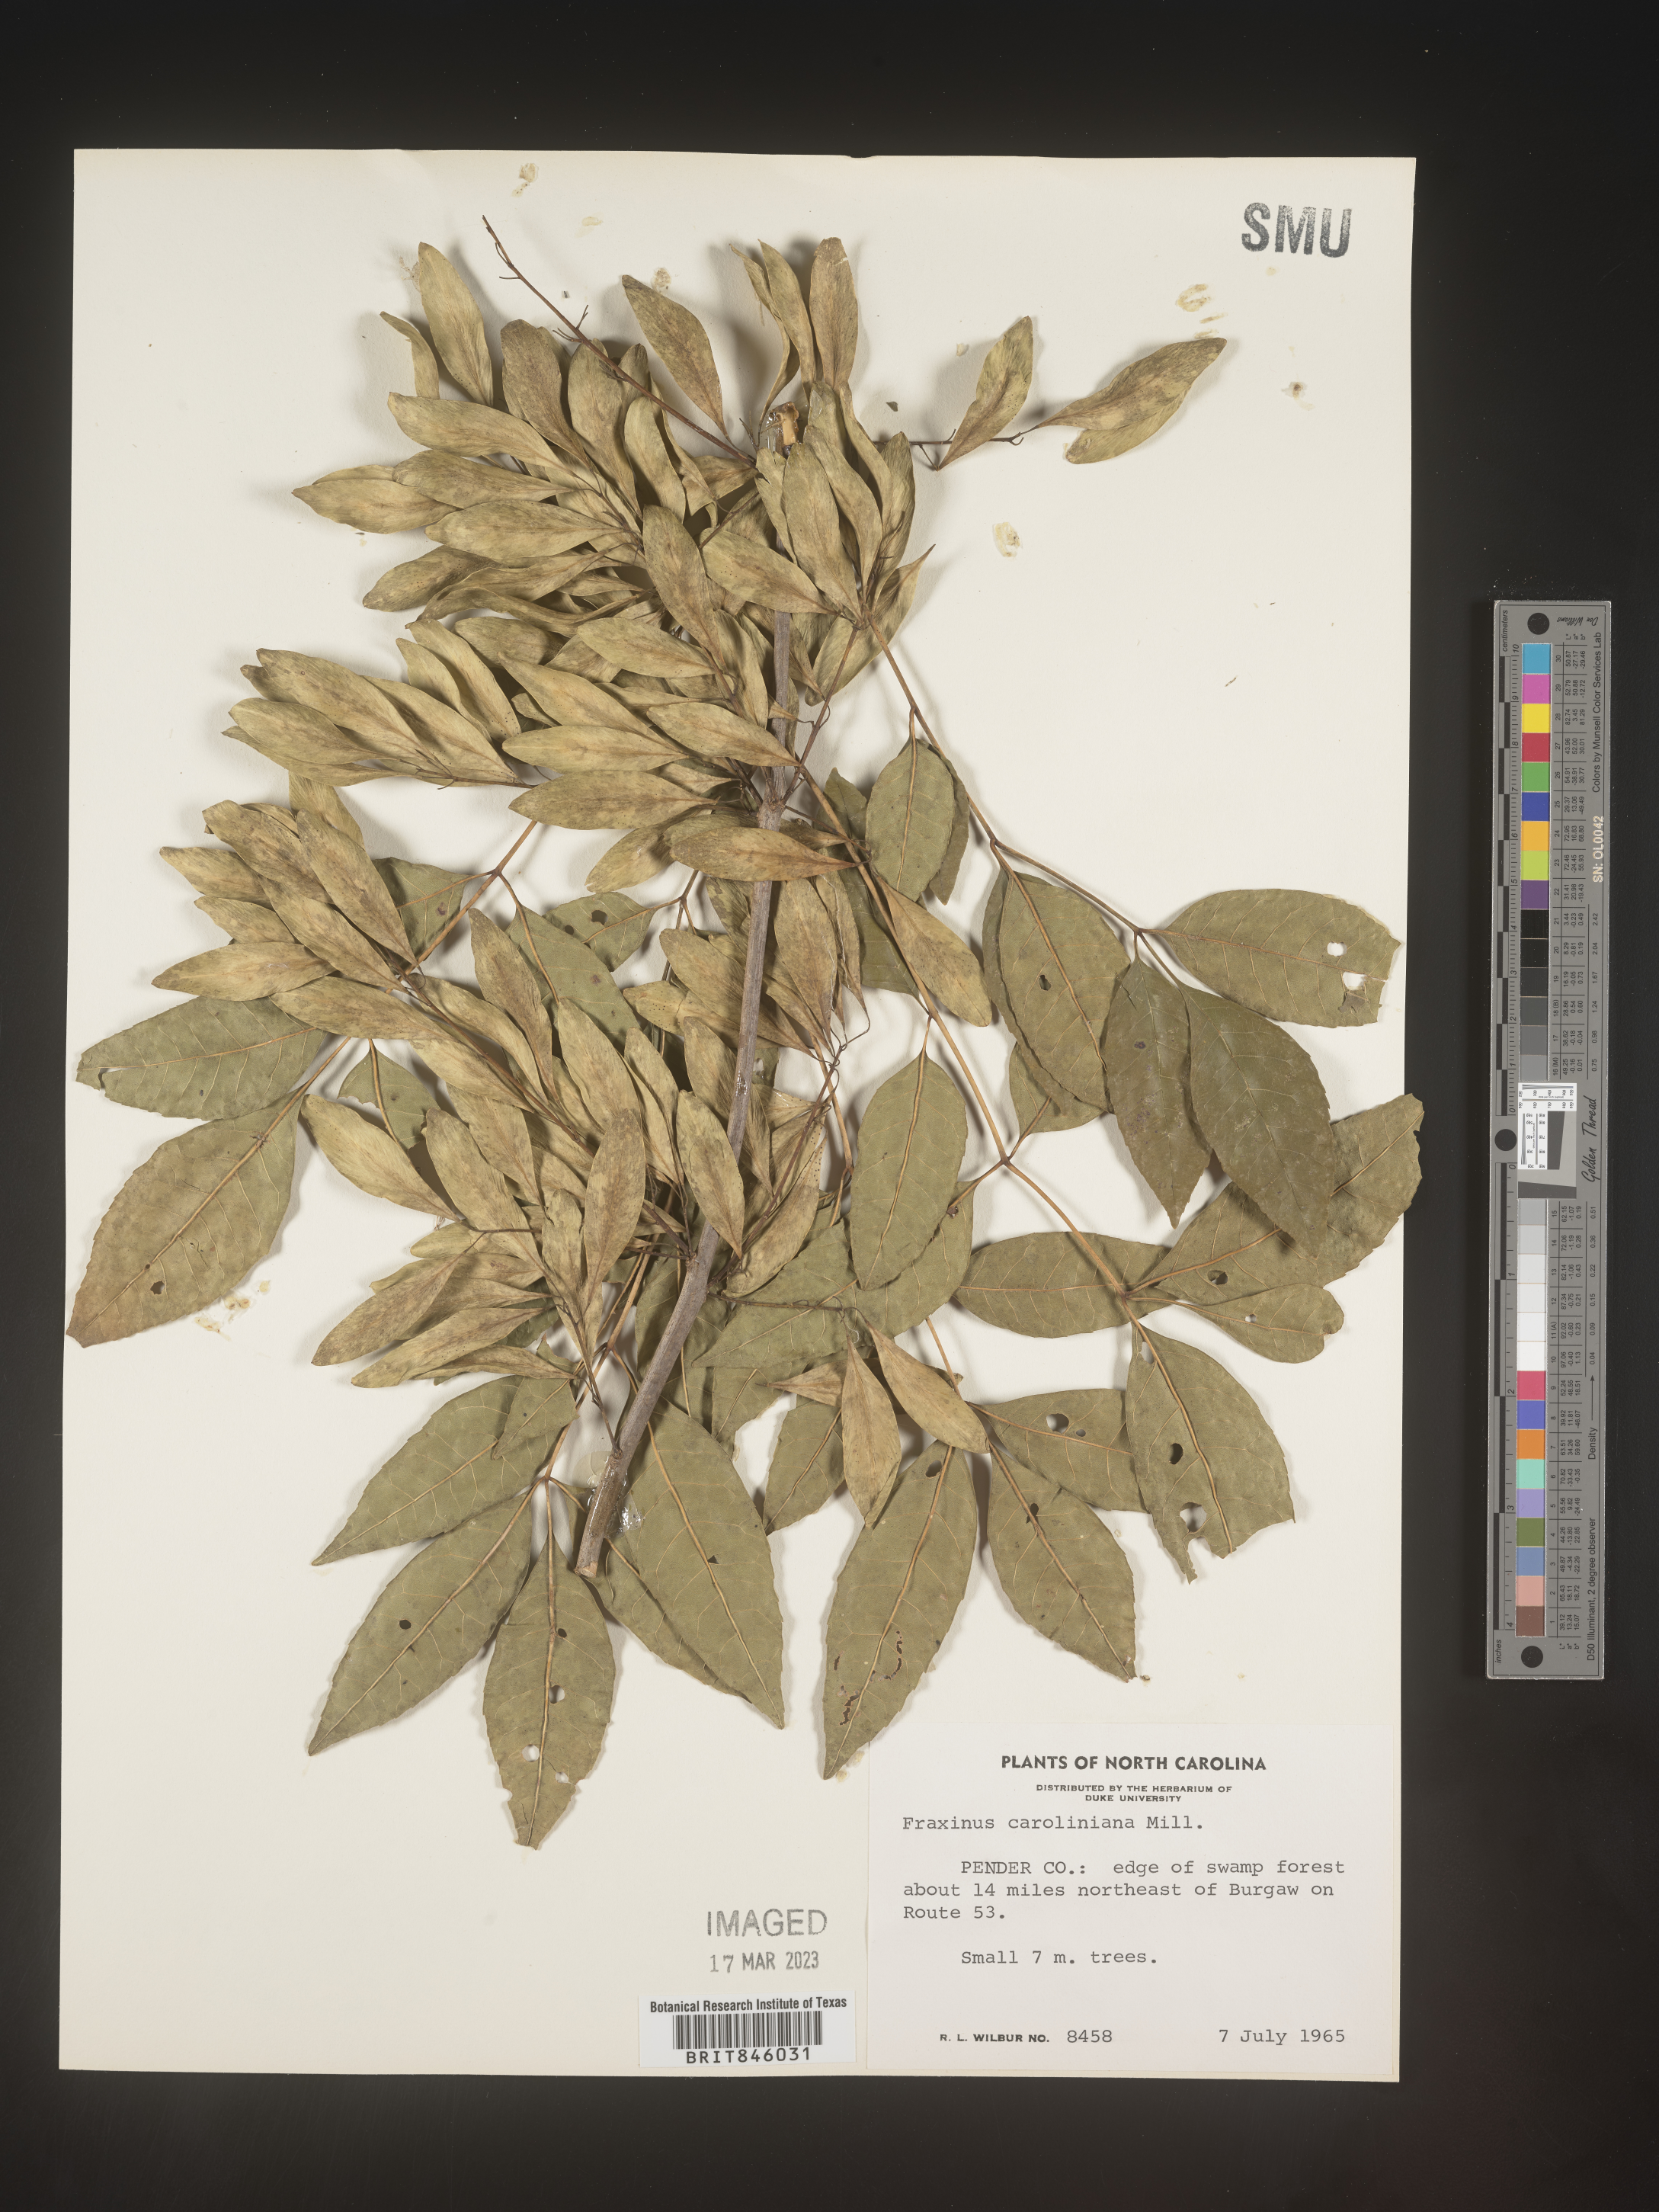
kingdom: Plantae
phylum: Tracheophyta
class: Magnoliopsida
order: Lamiales
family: Oleaceae
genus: Fraxinus
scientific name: Fraxinus caroliniana
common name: Carolina ash
